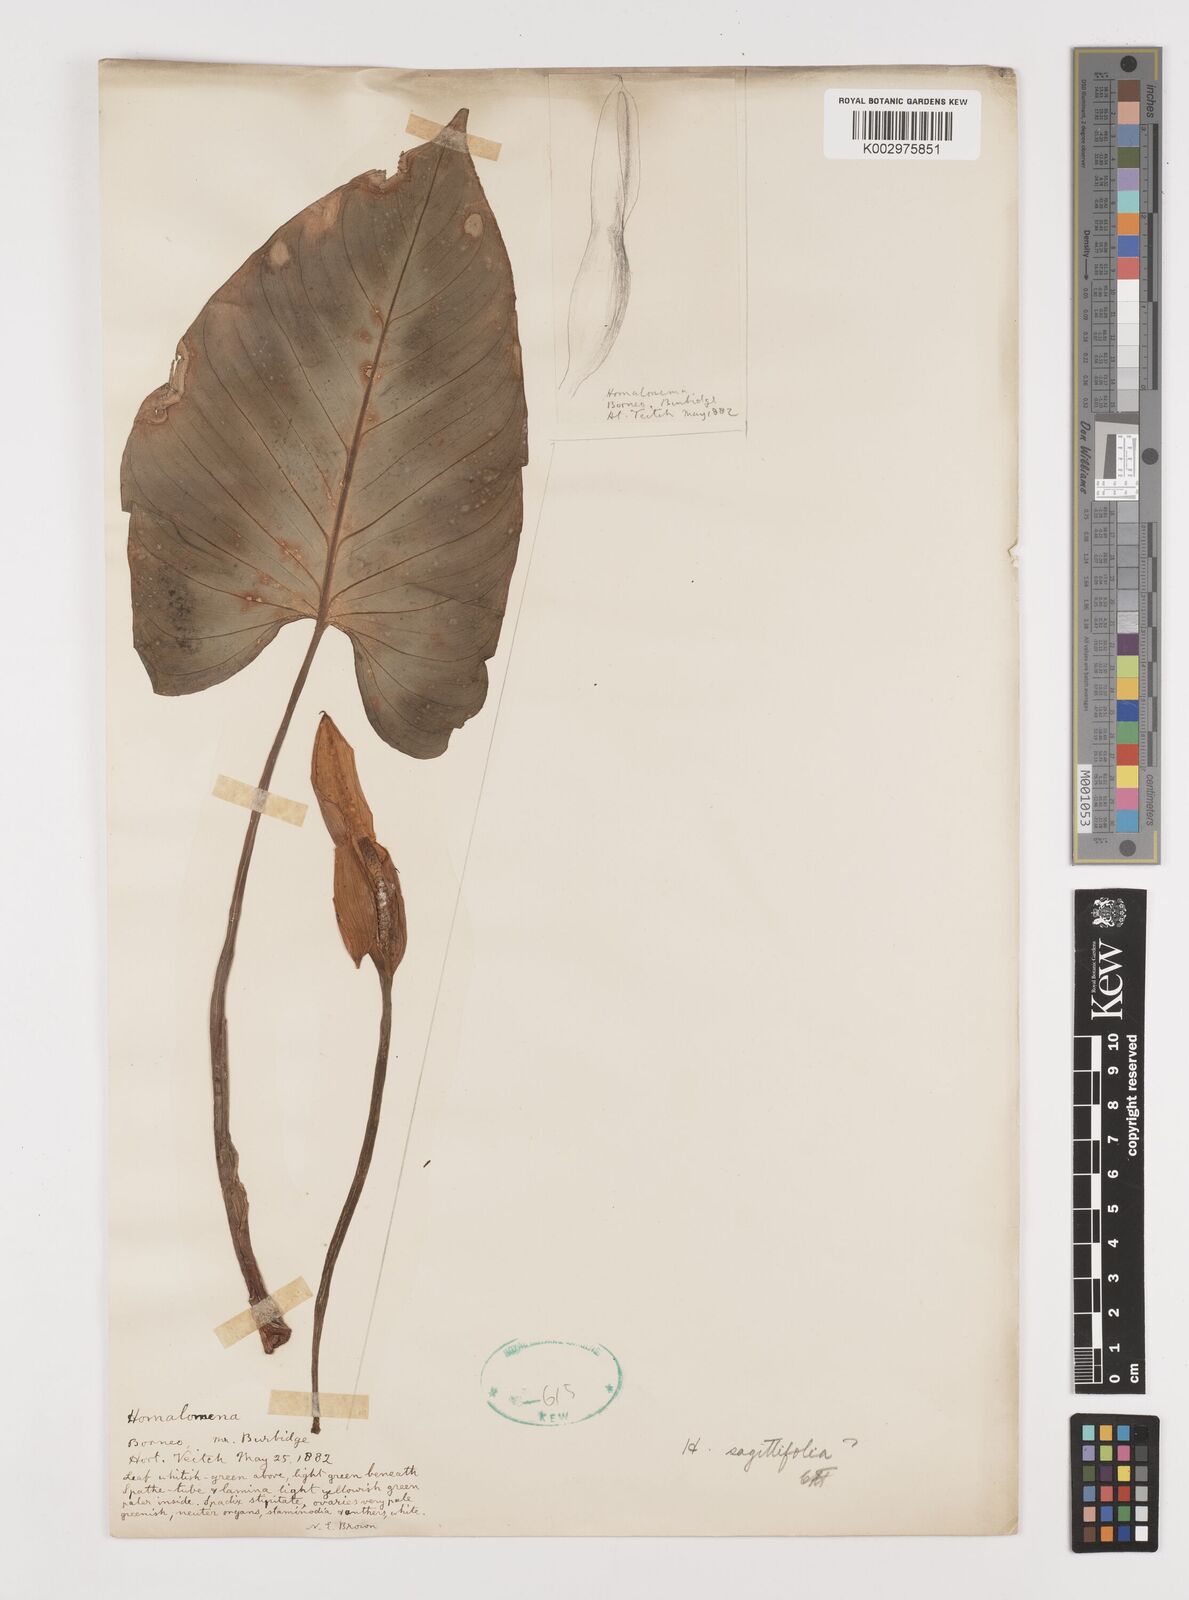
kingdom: Plantae
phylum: Tracheophyta
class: Liliopsida
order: Alismatales
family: Araceae
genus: Homalomena
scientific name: Homalomena
